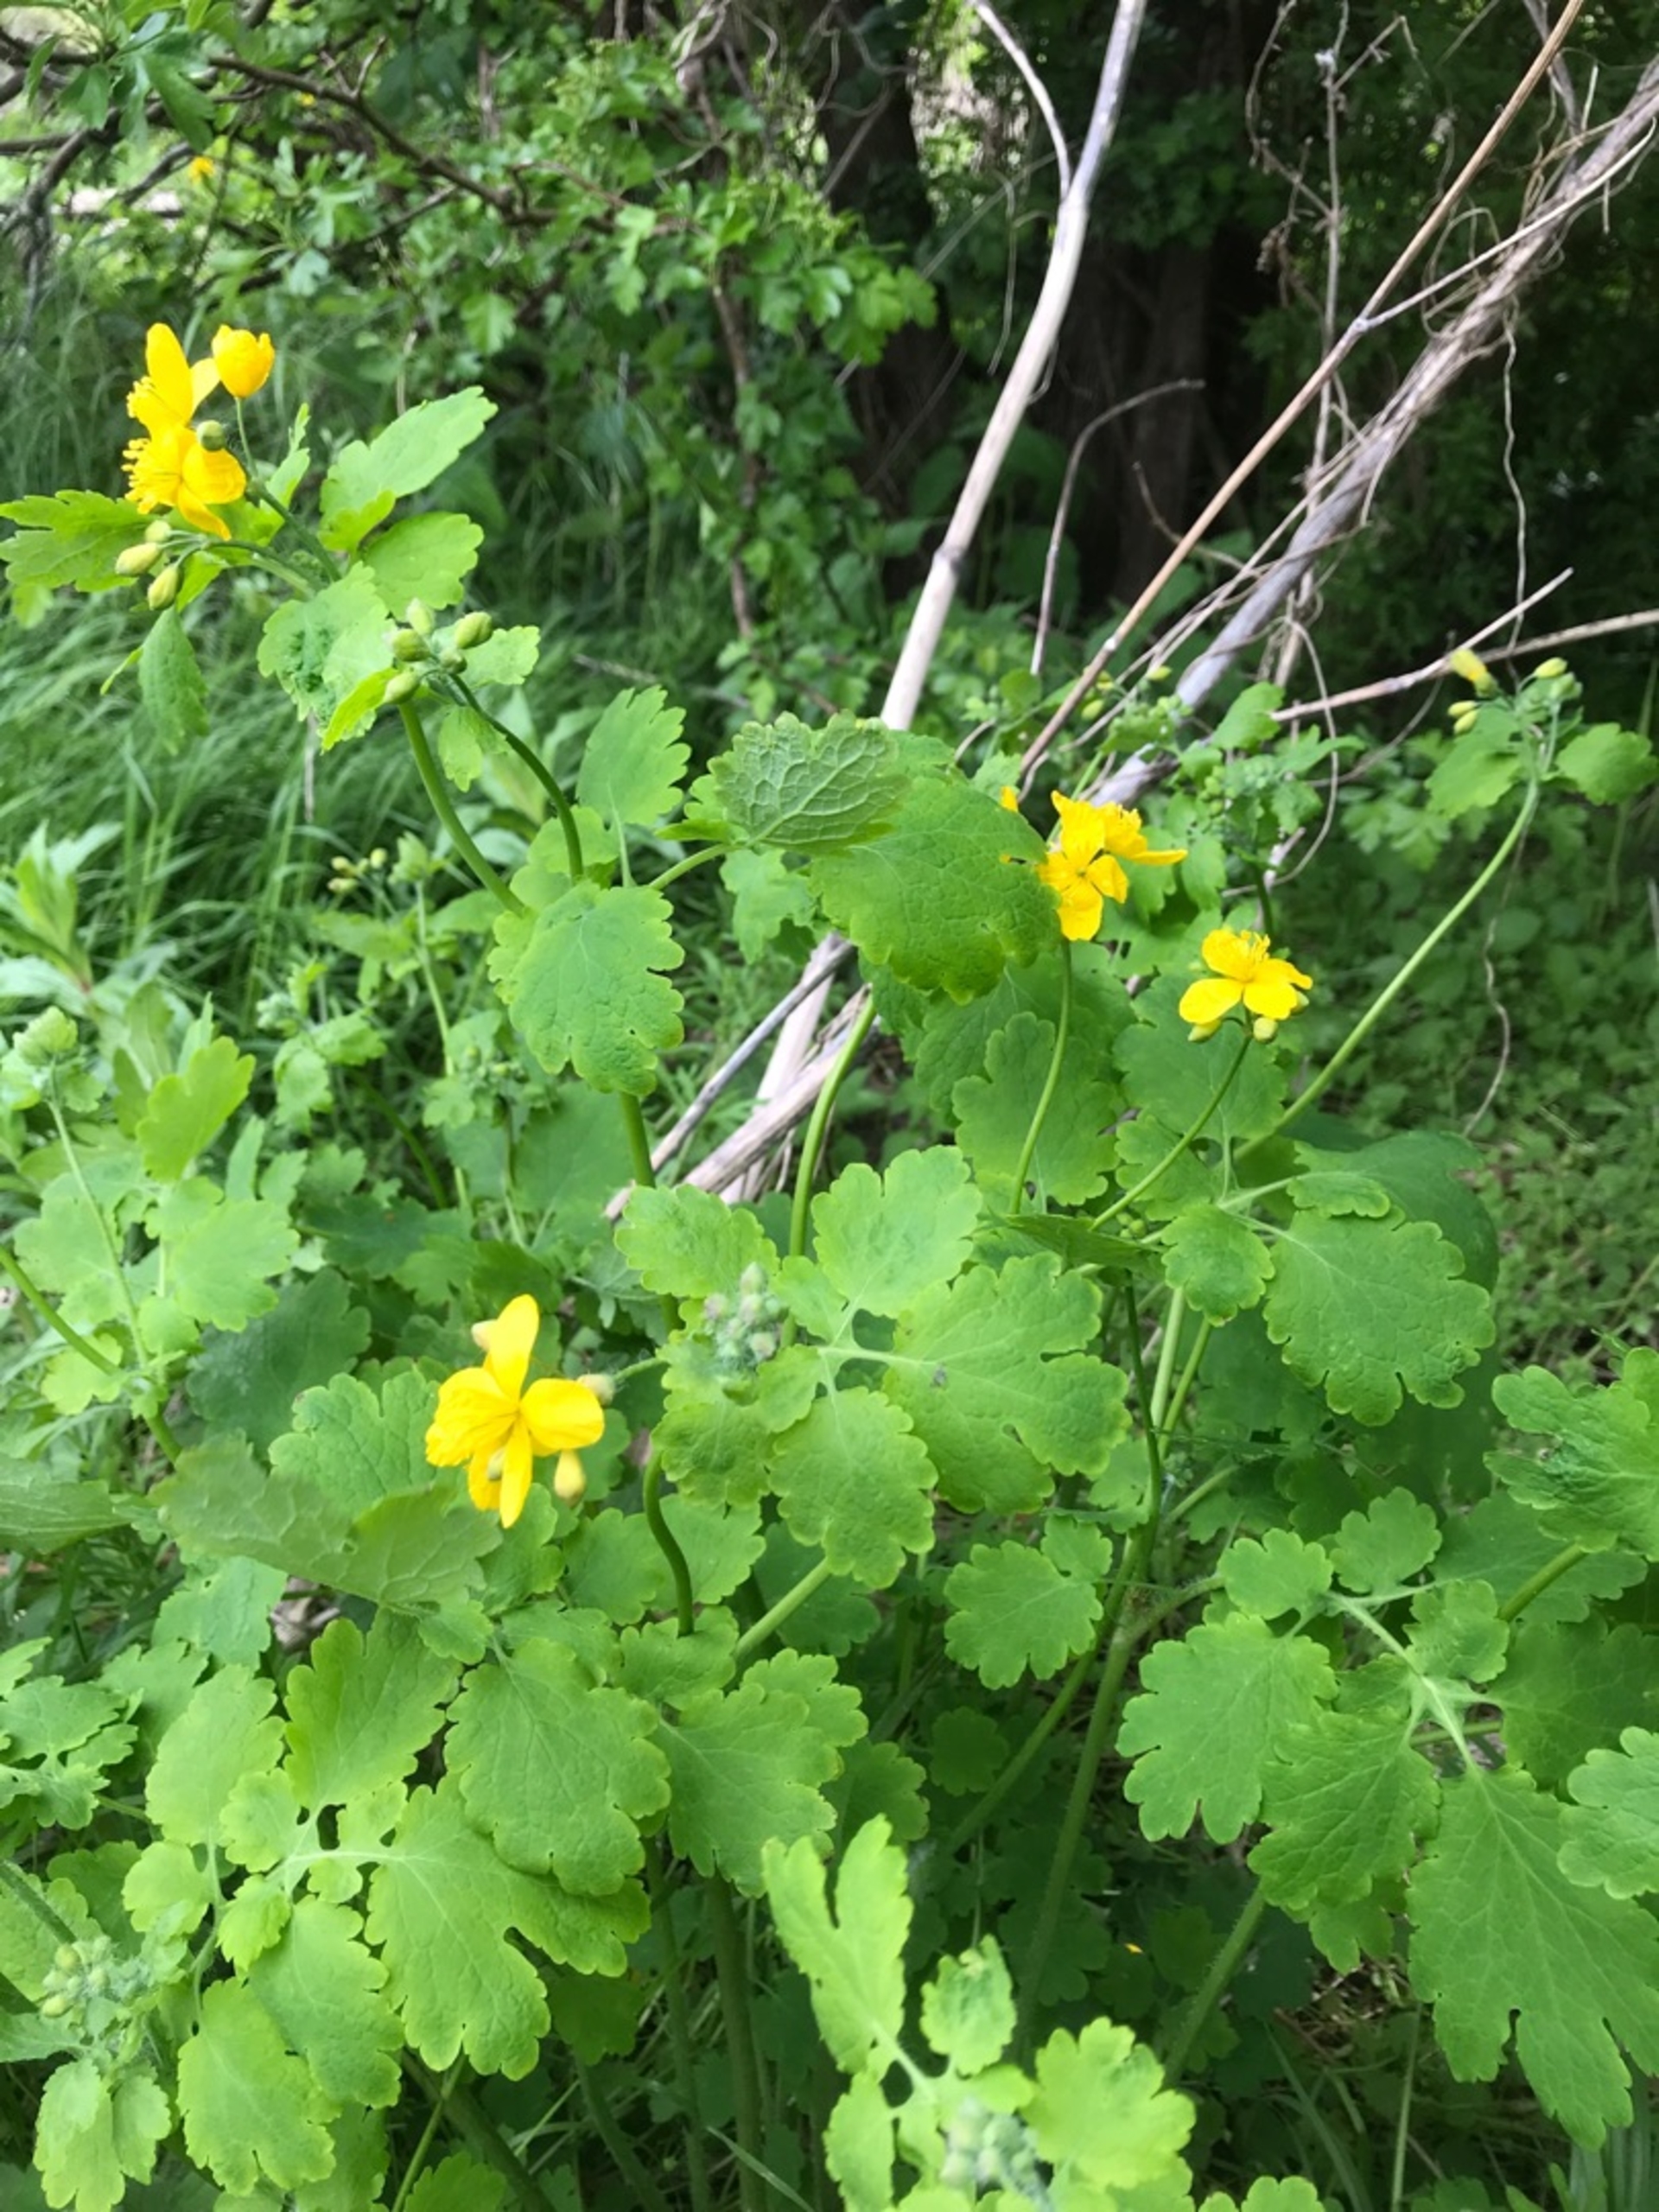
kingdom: Plantae
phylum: Tracheophyta
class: Magnoliopsida
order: Ranunculales
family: Papaveraceae
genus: Chelidonium
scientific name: Chelidonium majus
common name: Svaleurt
